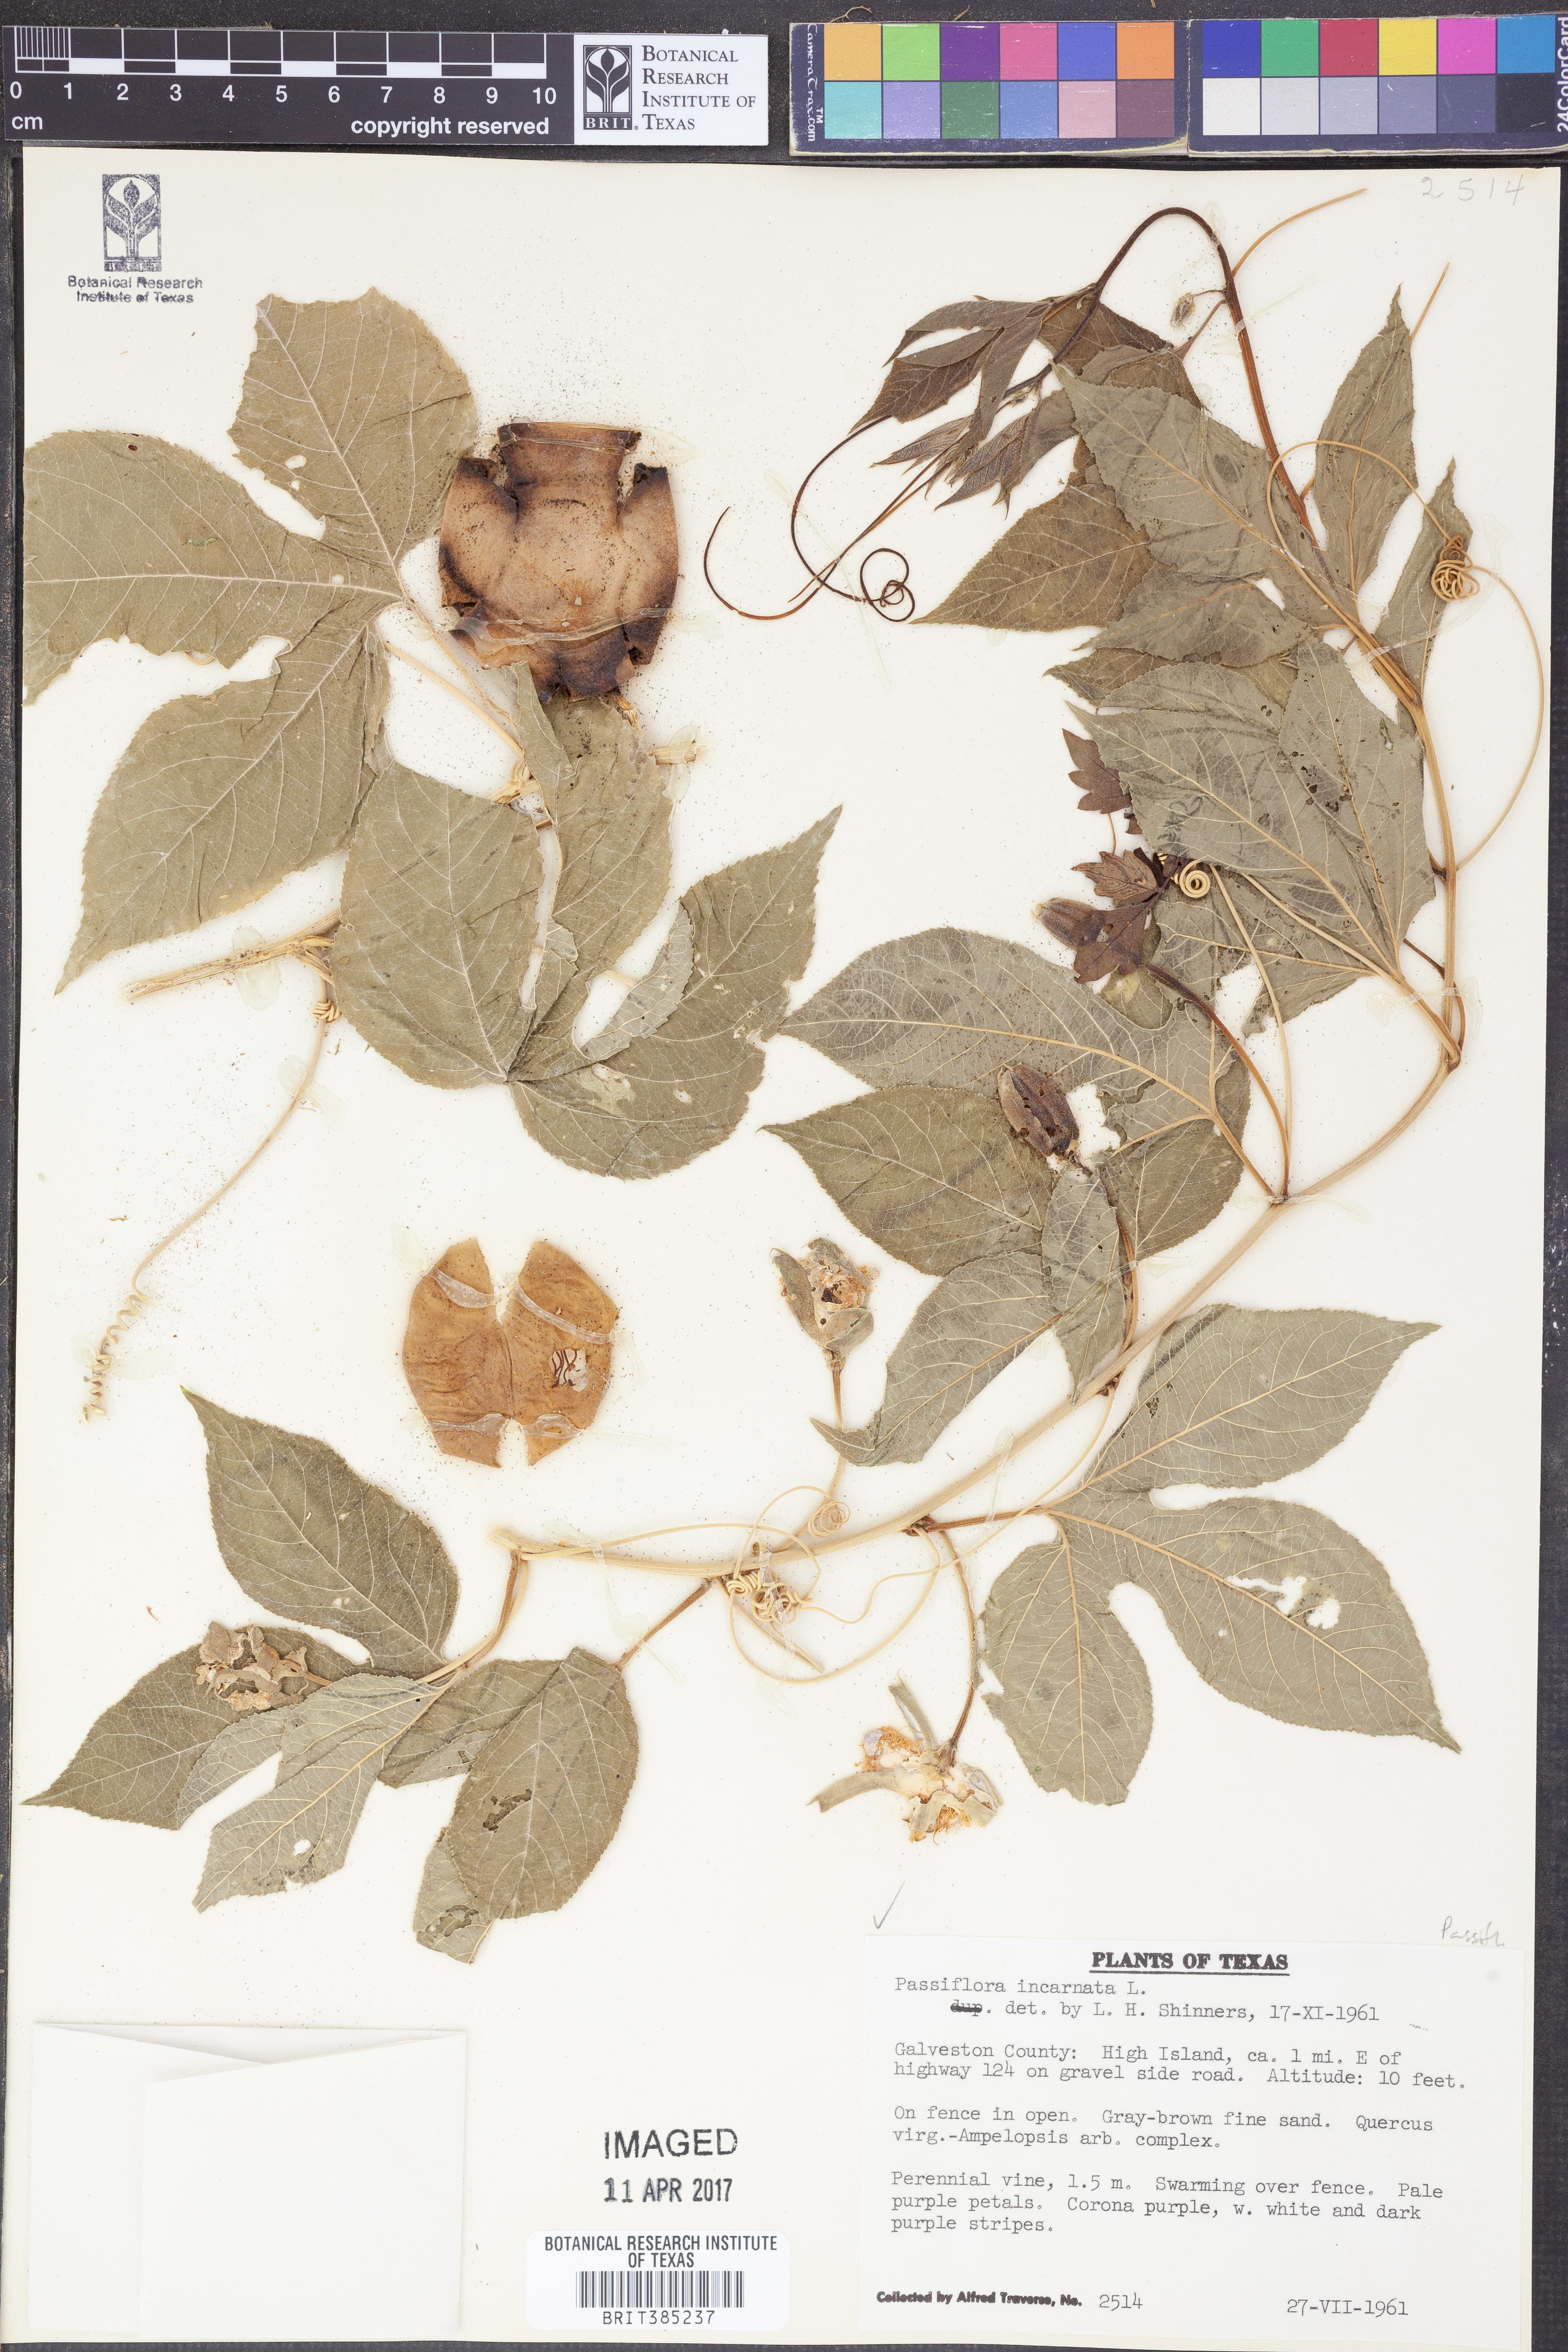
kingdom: Plantae
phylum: Tracheophyta
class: Magnoliopsida
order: Malpighiales
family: Passifloraceae
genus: Passiflora
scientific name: Passiflora incarnata
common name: Apricot-vine
